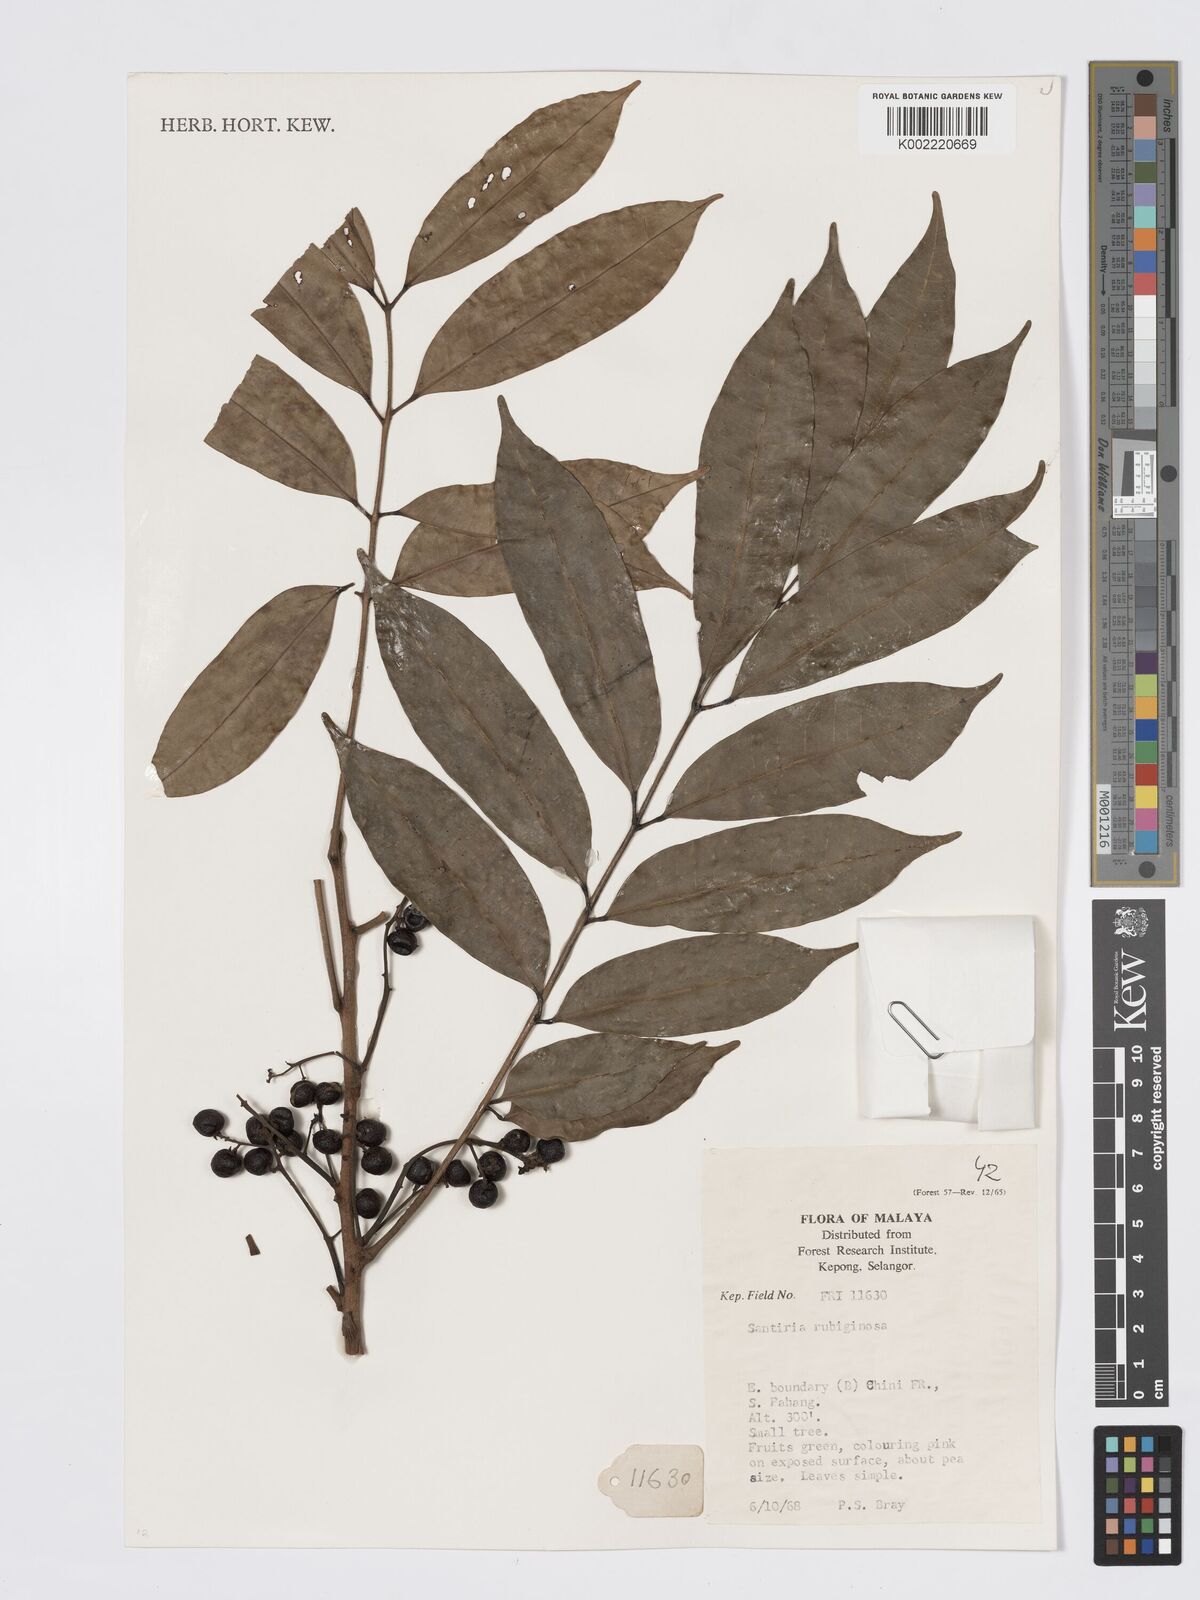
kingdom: Plantae
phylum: Tracheophyta
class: Magnoliopsida
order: Sapindales
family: Burseraceae
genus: Santiria
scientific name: Santiria rubiginosa
